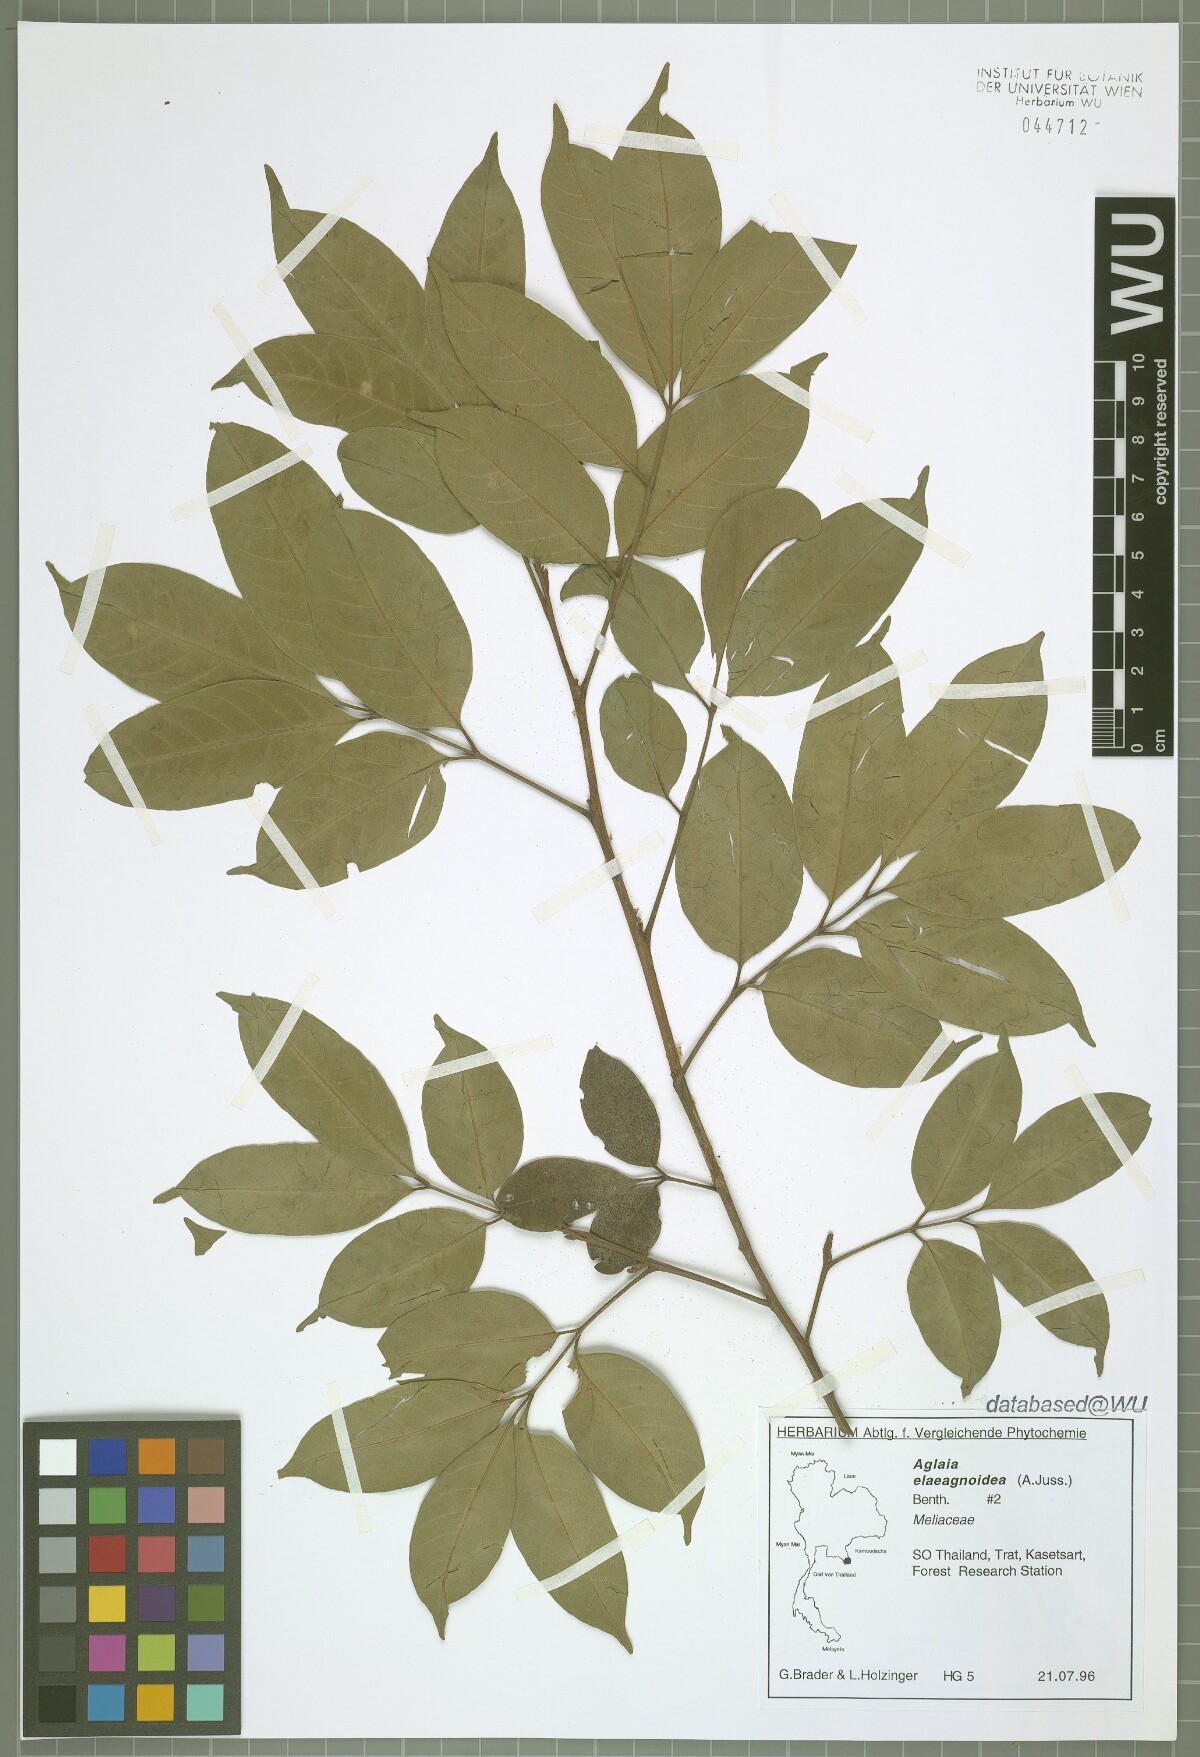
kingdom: Plantae
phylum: Tracheophyta
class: Magnoliopsida
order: Sapindales
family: Meliaceae
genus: Aglaia
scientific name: Aglaia elaeagnoidea
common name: Droopyleaf
